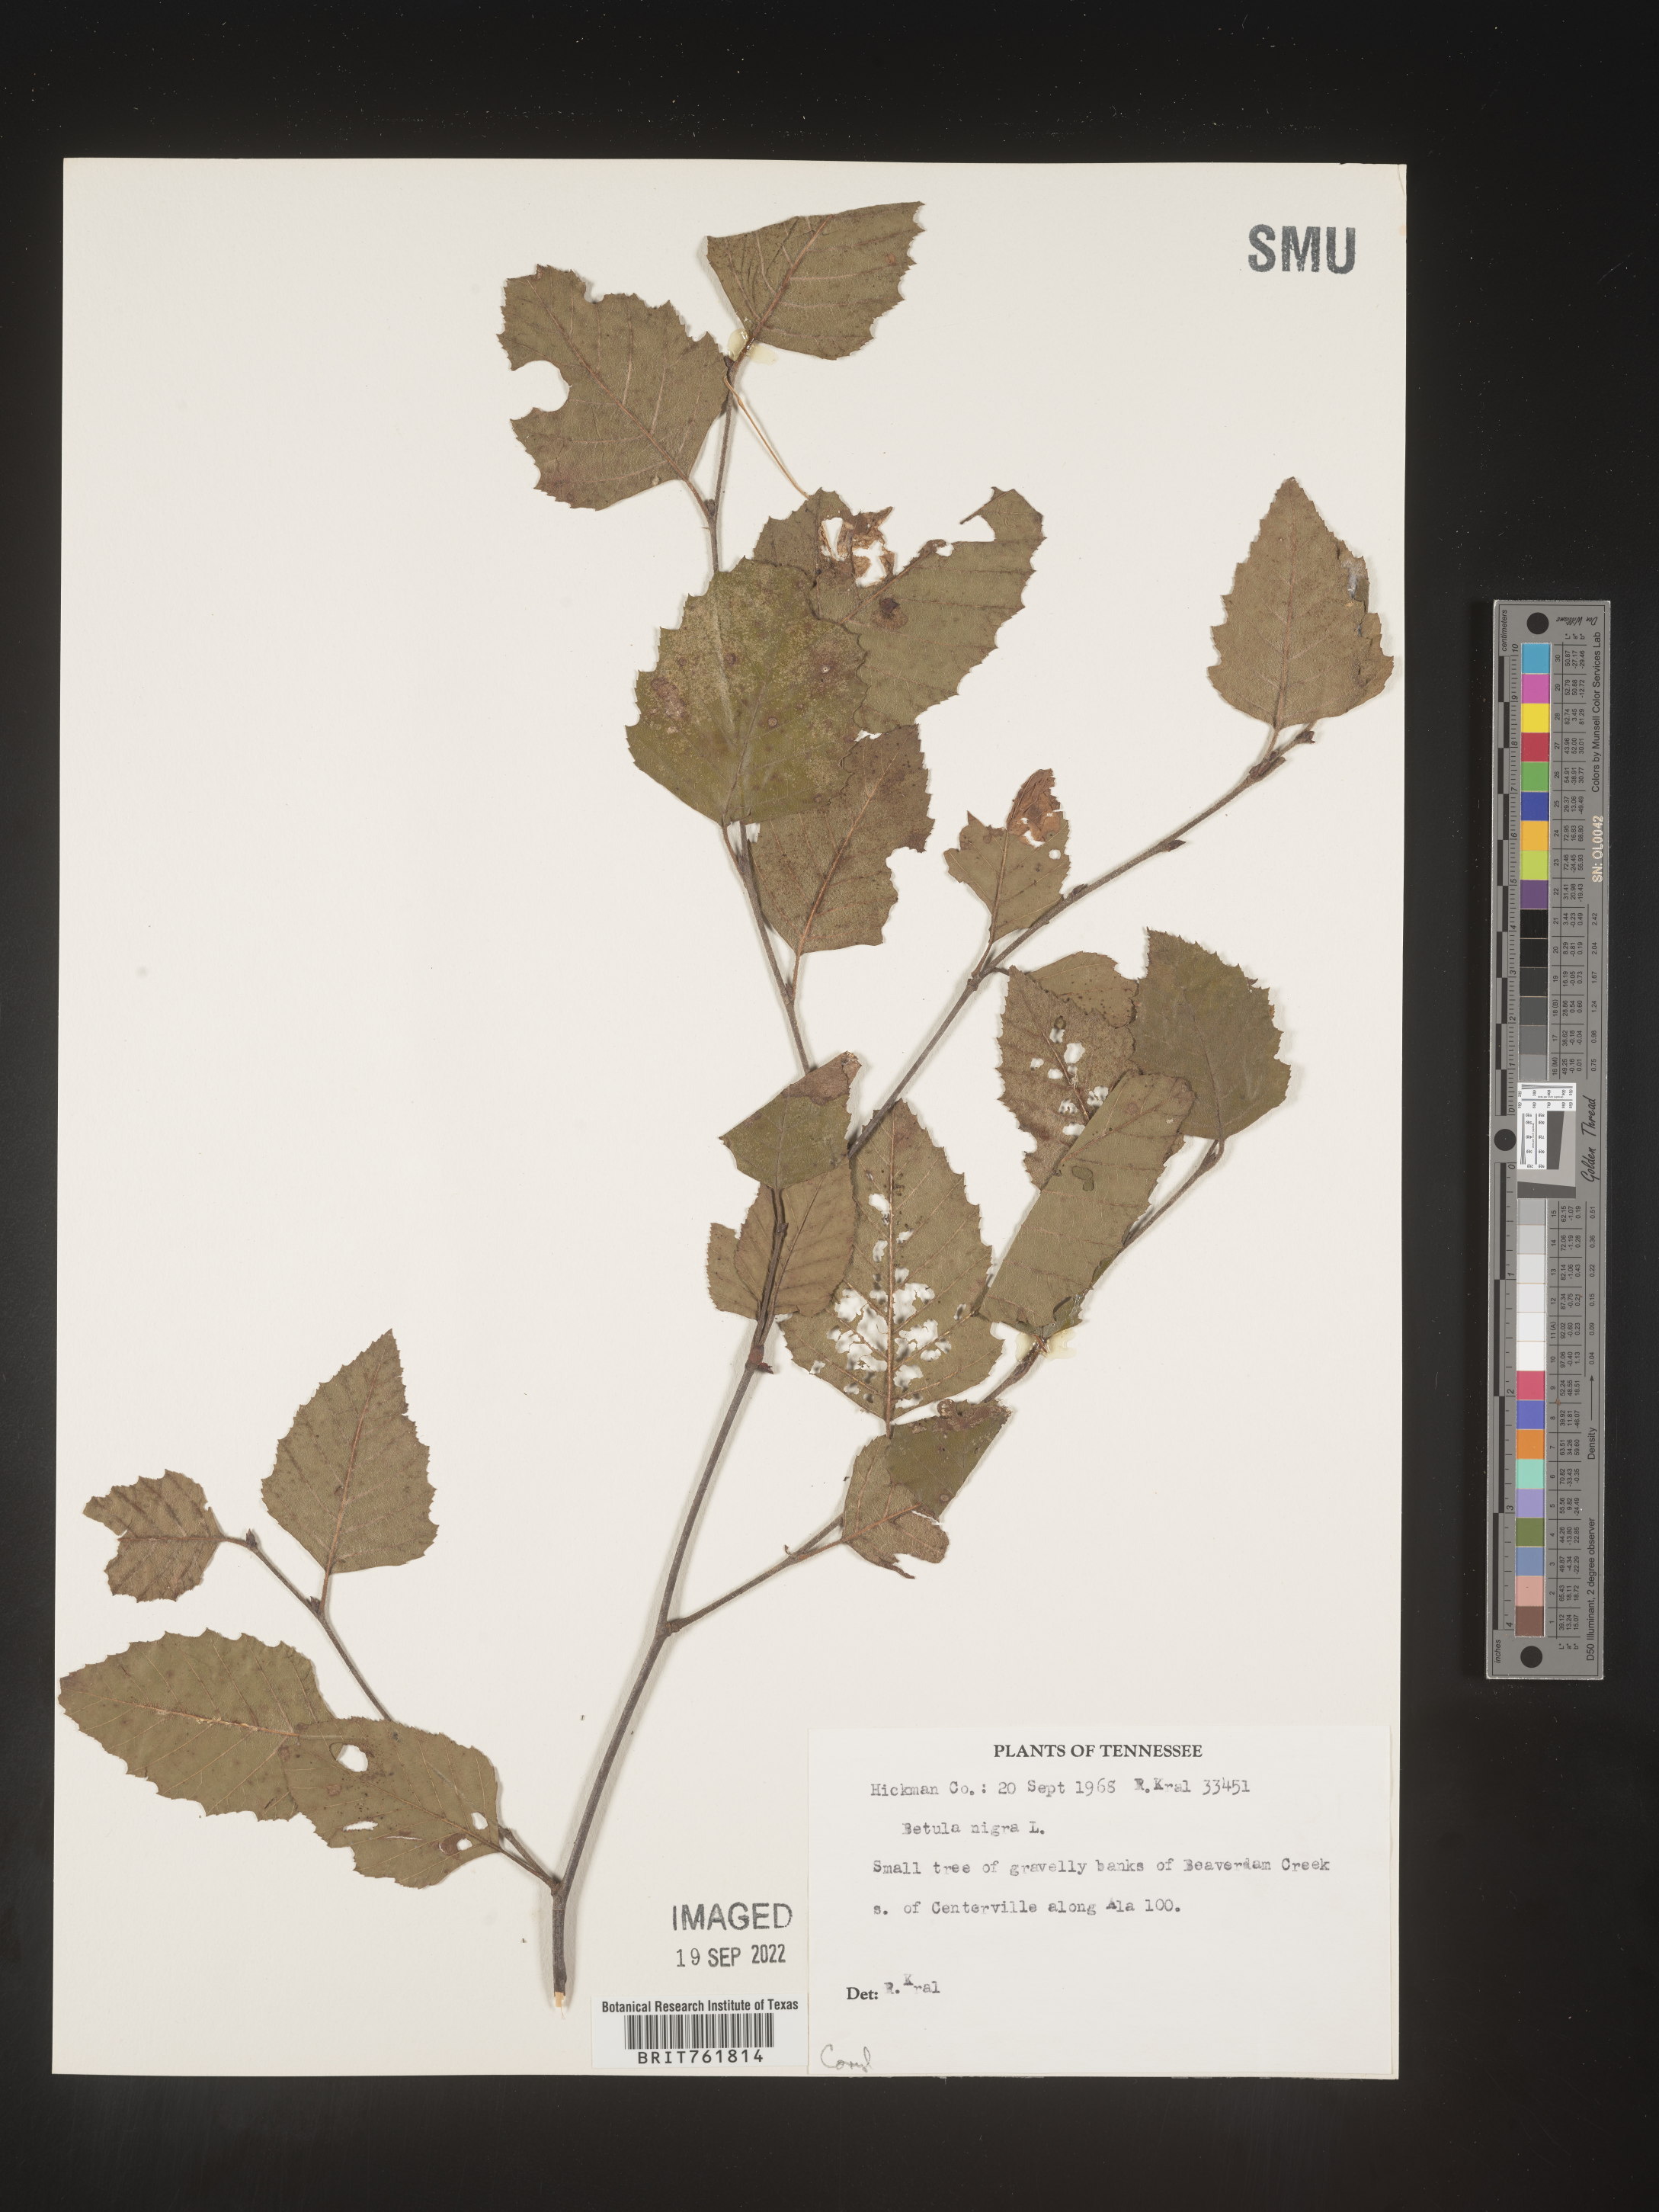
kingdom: Plantae
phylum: Tracheophyta
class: Magnoliopsida
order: Fagales
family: Betulaceae
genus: Betula
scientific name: Betula nigra
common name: Black birch
